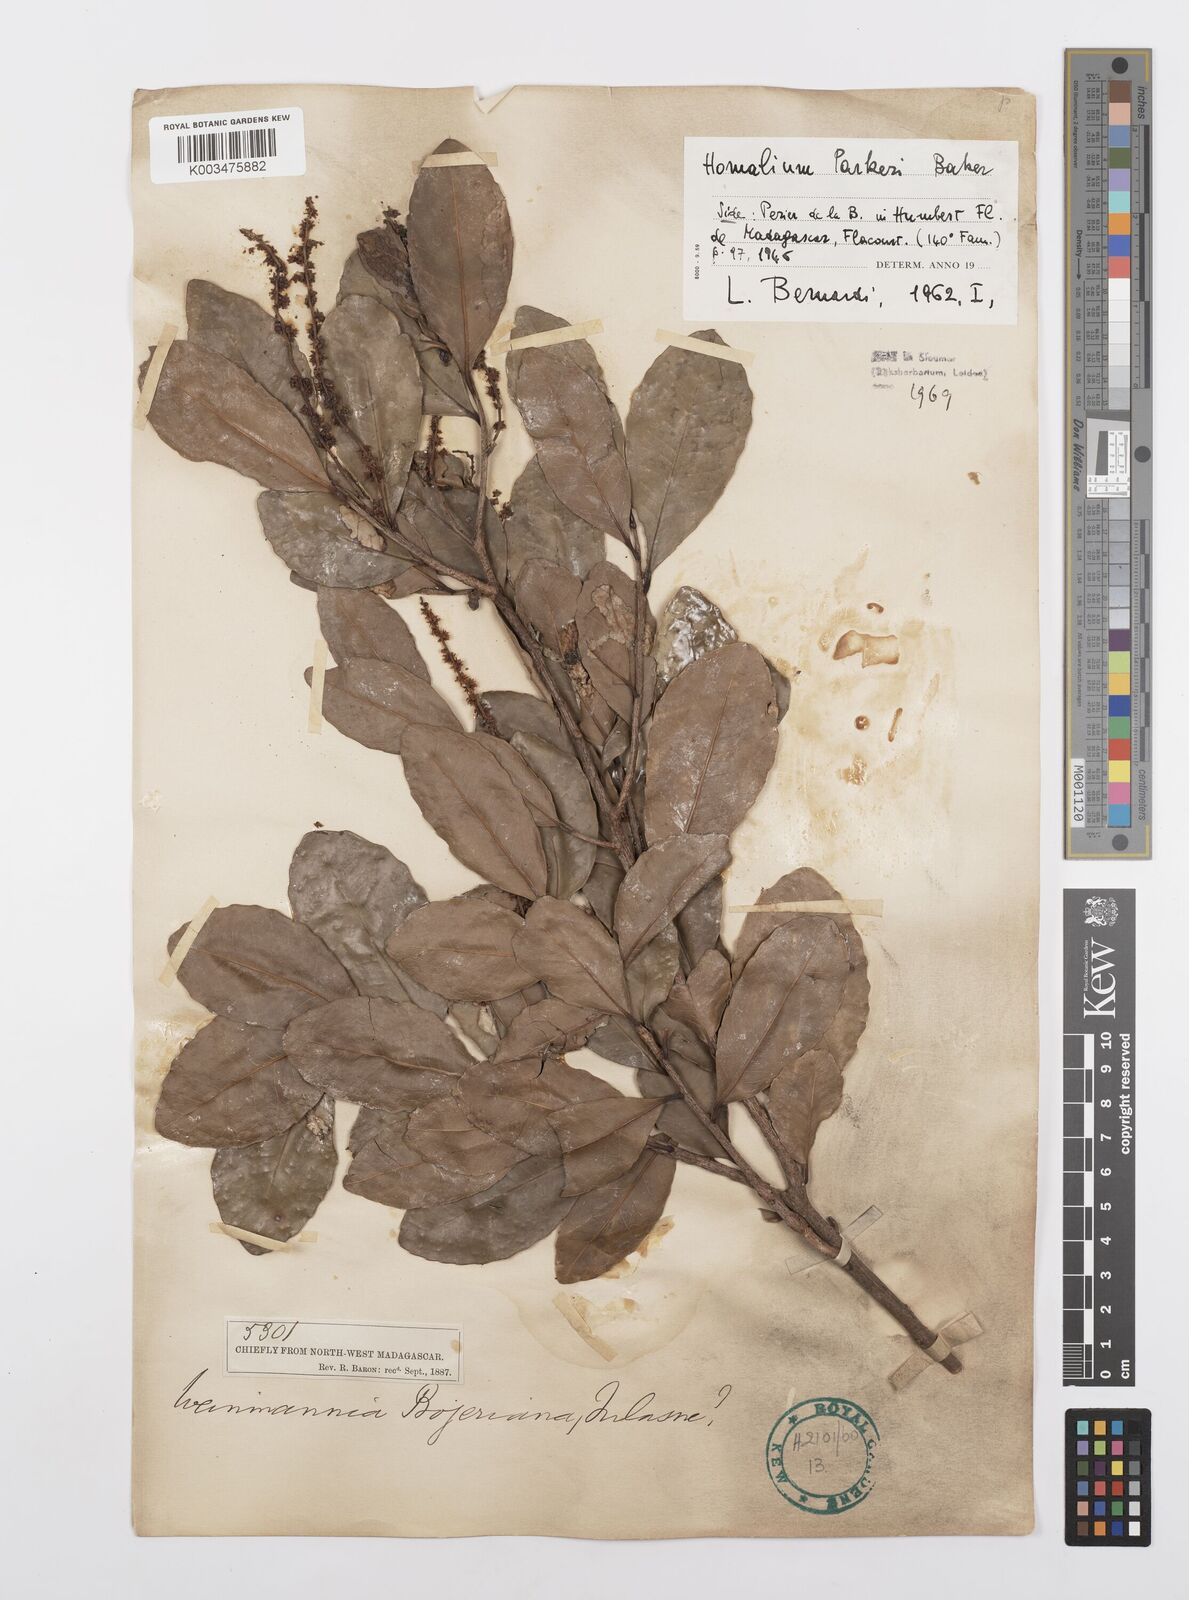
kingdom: Plantae
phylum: Tracheophyta
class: Magnoliopsida
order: Malpighiales
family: Salicaceae
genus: Homalium
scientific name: Homalium parkeri
